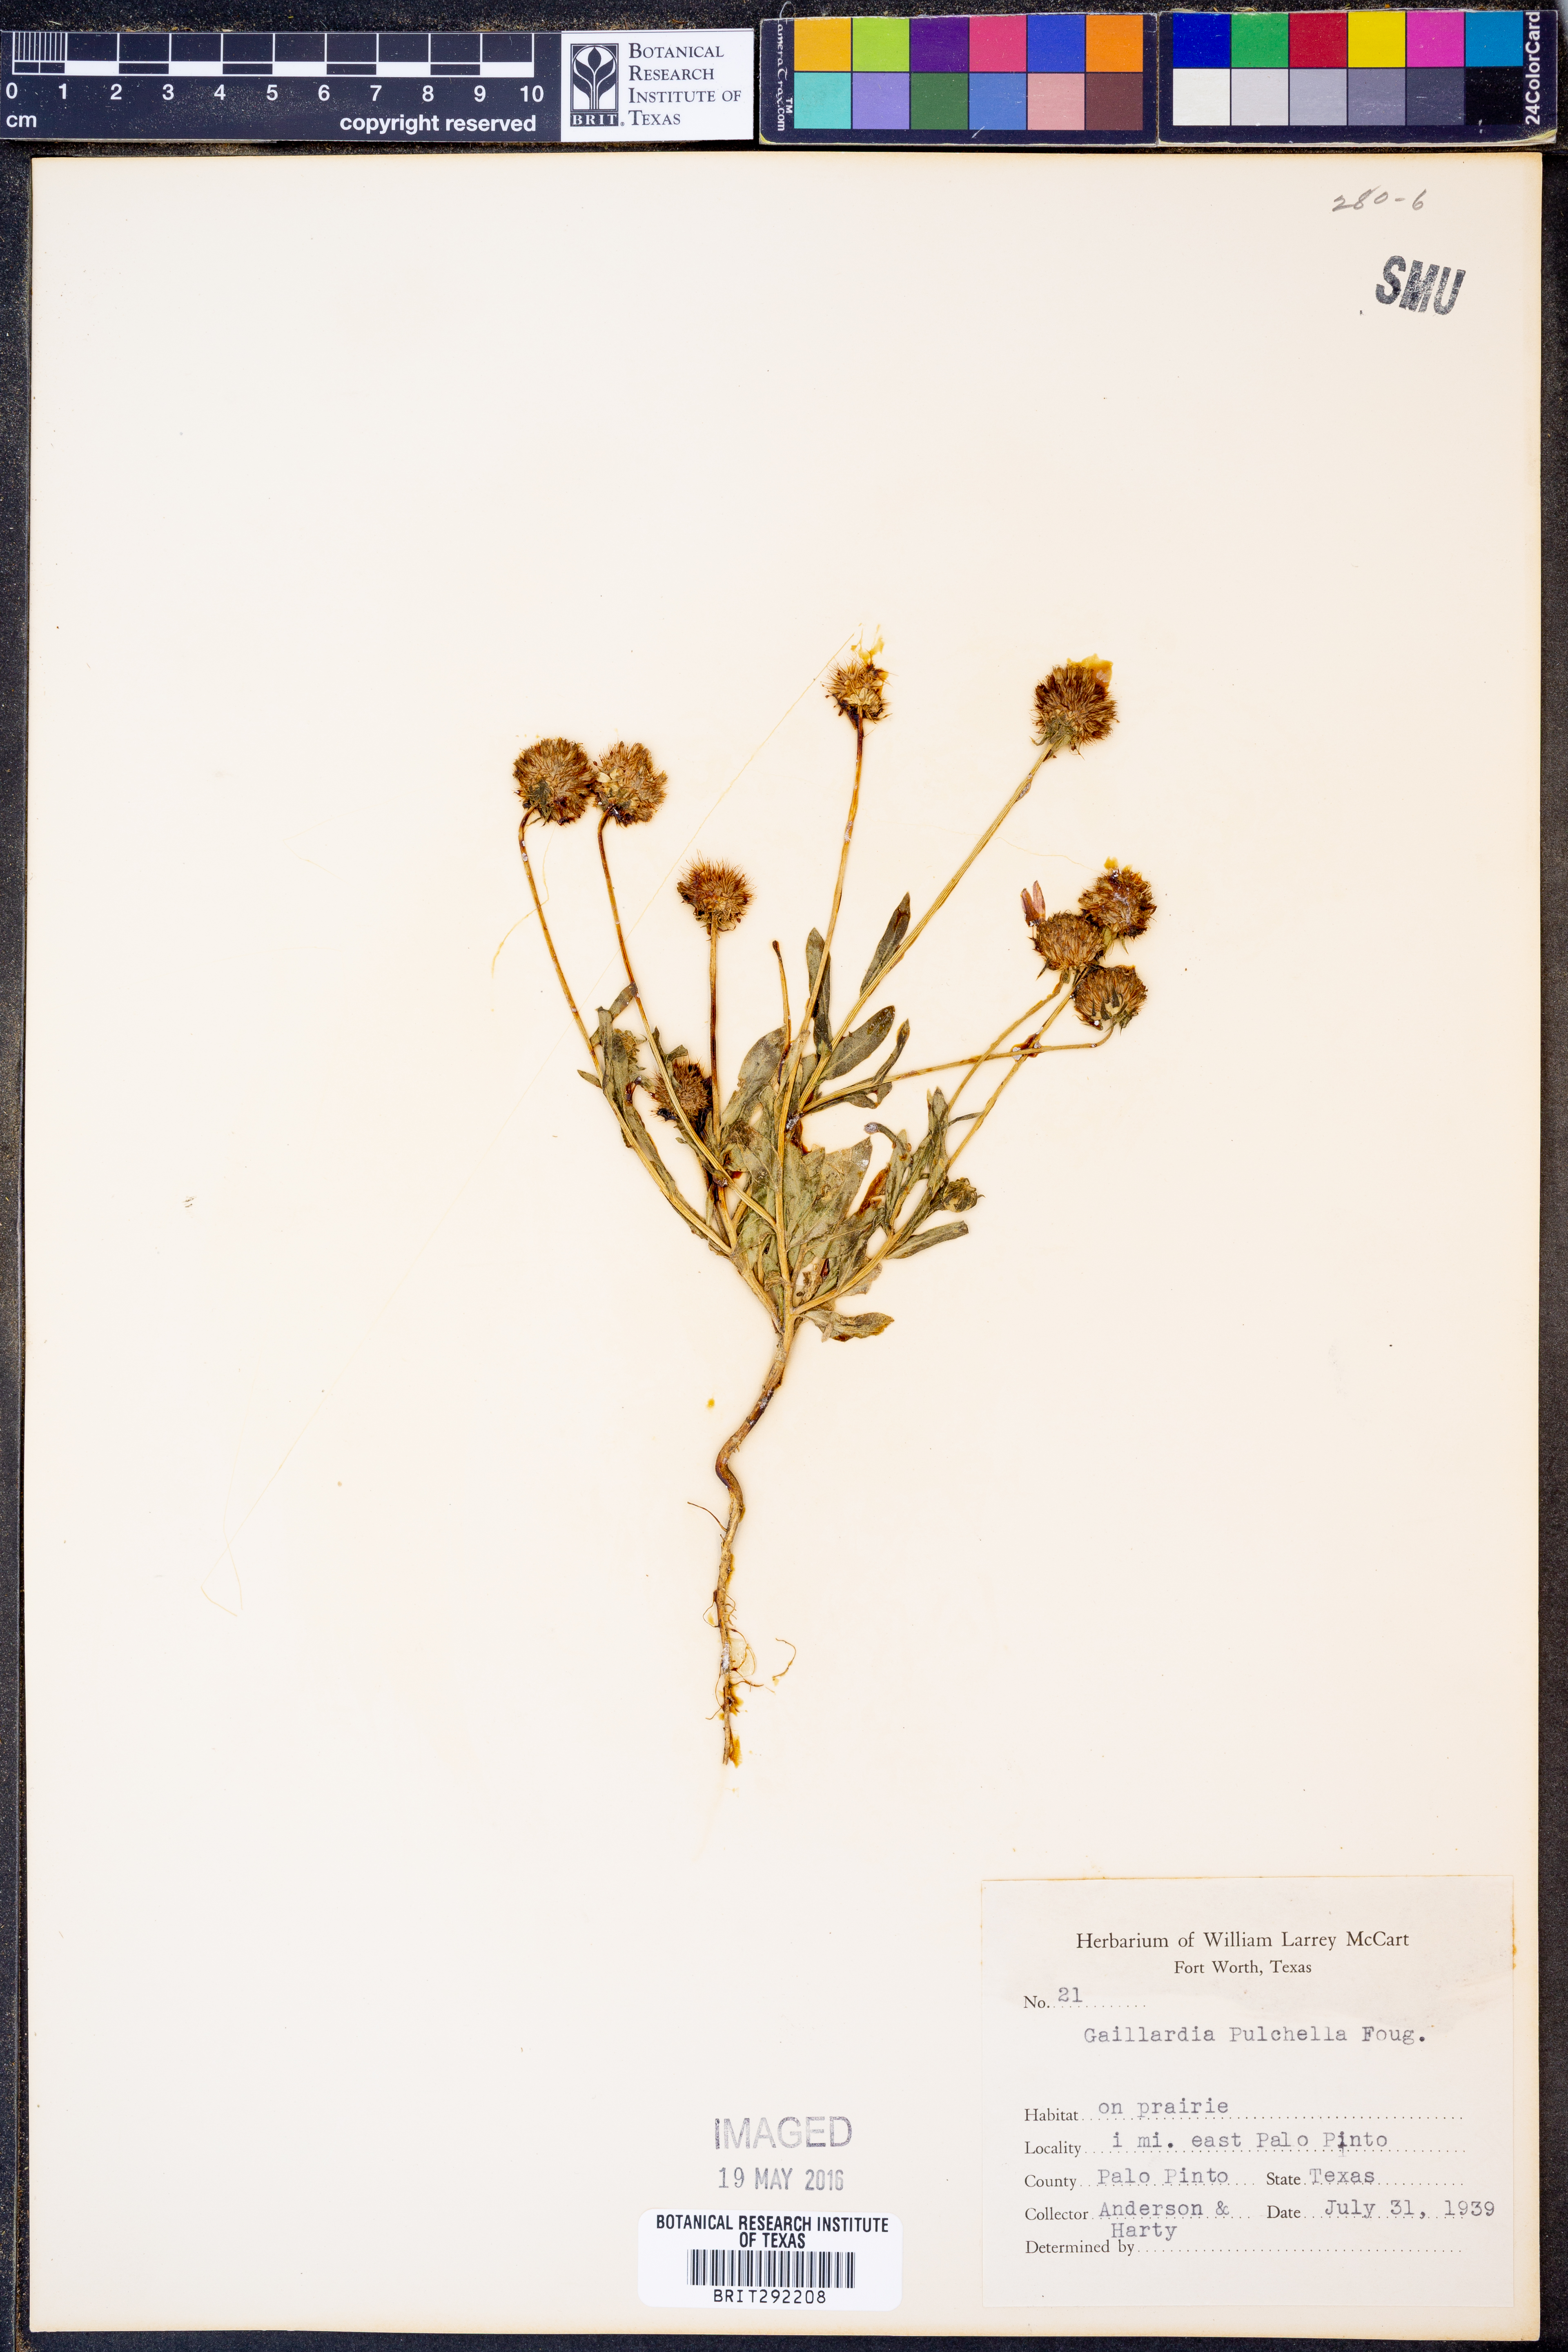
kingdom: Plantae
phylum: Tracheophyta
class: Magnoliopsida
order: Asterales
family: Asteraceae
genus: Gaillardia
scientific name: Gaillardia pulchella
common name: Firewheel
